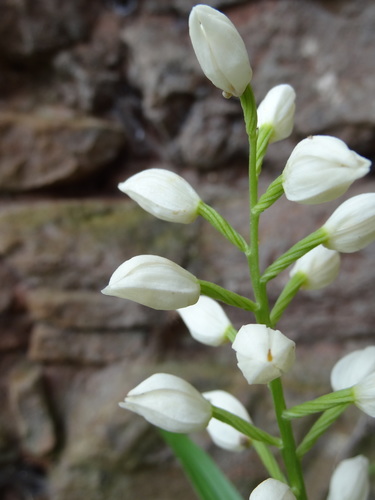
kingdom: Plantae
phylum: Tracheophyta
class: Liliopsida
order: Asparagales
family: Orchidaceae
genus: Cephalanthera
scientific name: Cephalanthera longifolia
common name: Narrow-leaved helleborine
